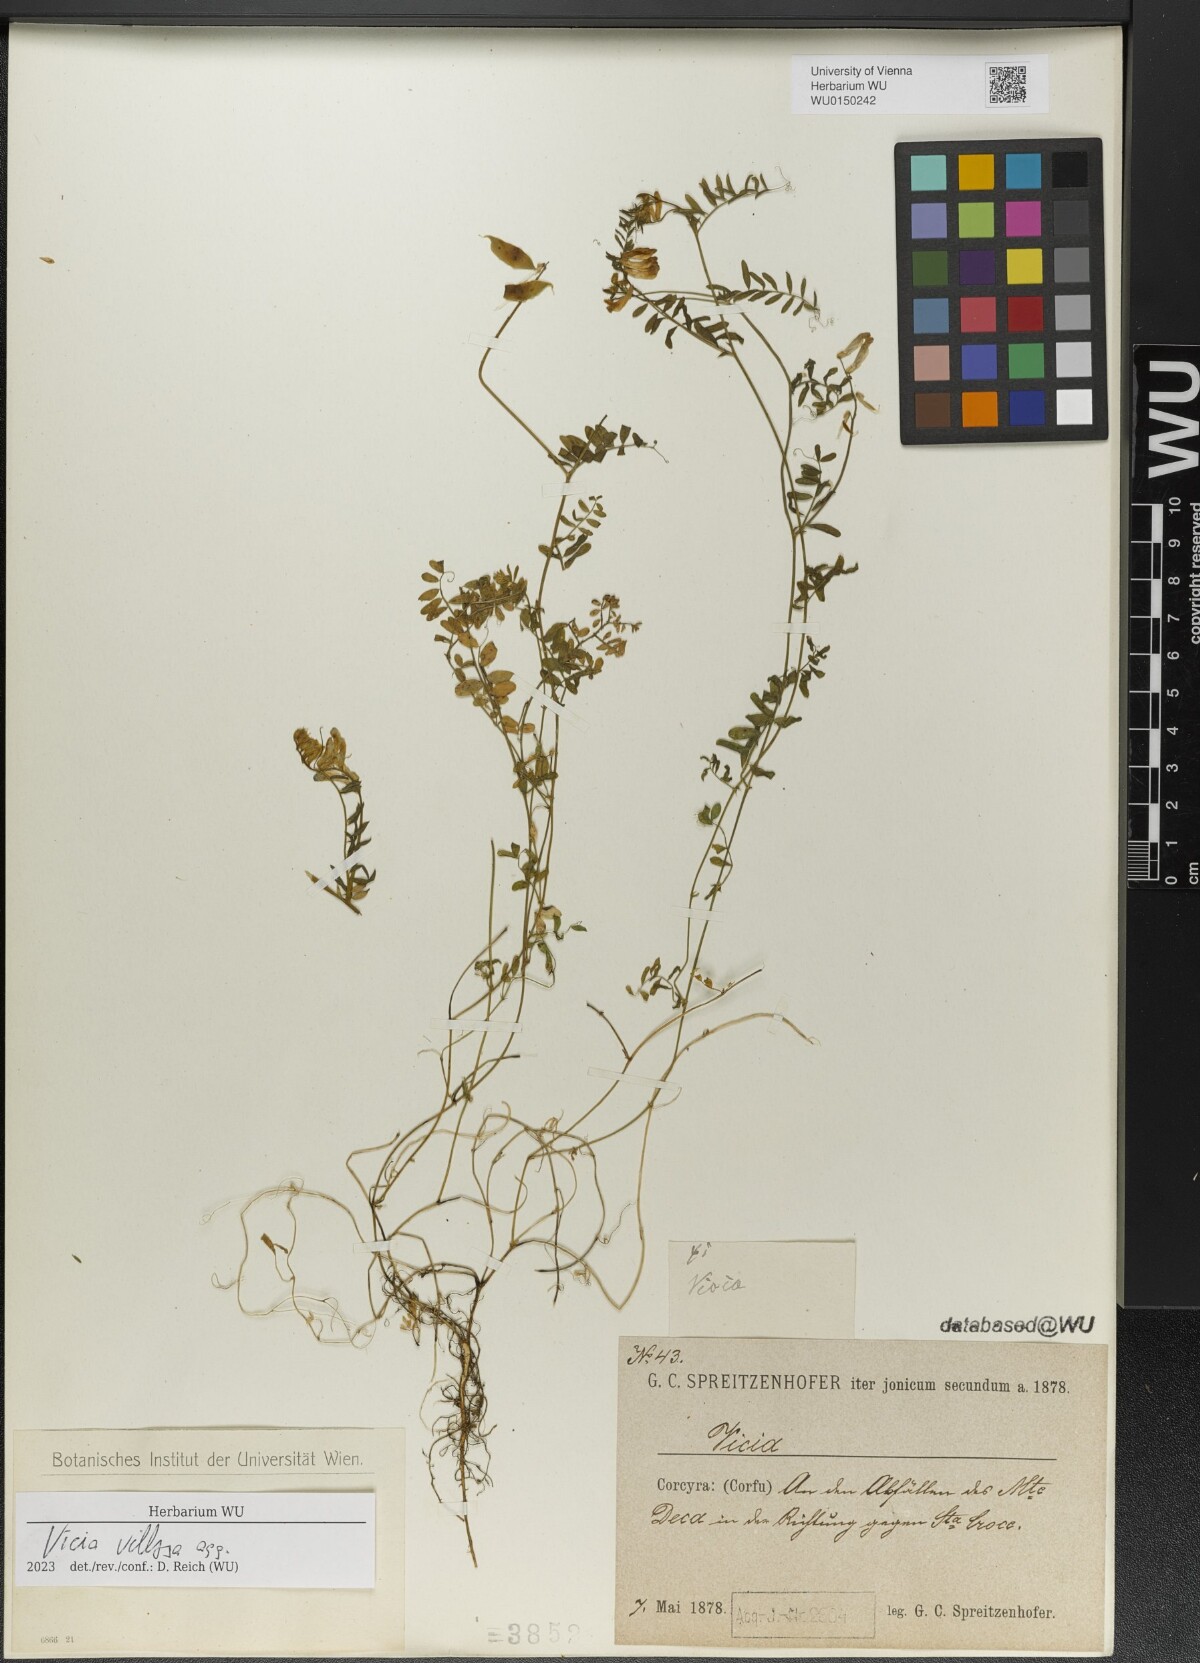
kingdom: Plantae
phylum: Tracheophyta
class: Magnoliopsida
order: Fabales
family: Fabaceae
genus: Vicia
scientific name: Vicia villosa
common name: Fodder vetch
